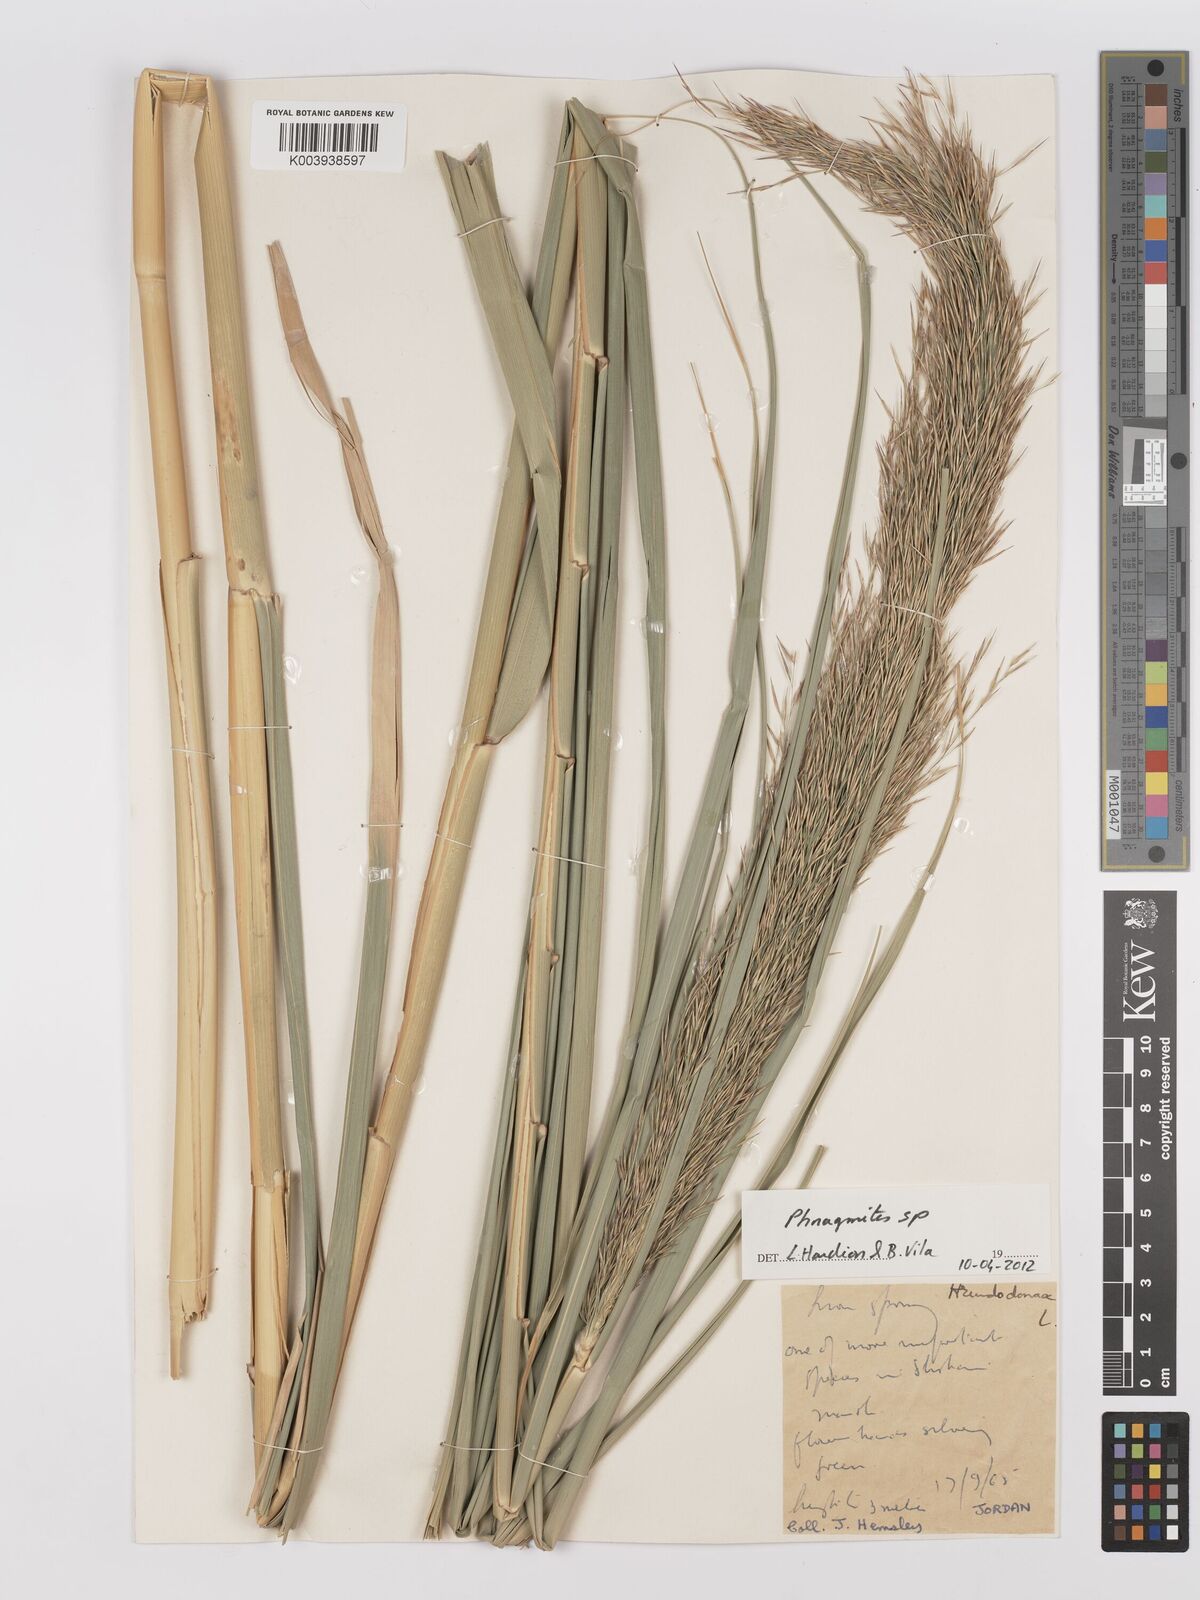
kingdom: Plantae
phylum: Tracheophyta
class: Liliopsida
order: Poales
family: Poaceae
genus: Phragmites
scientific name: Phragmites
